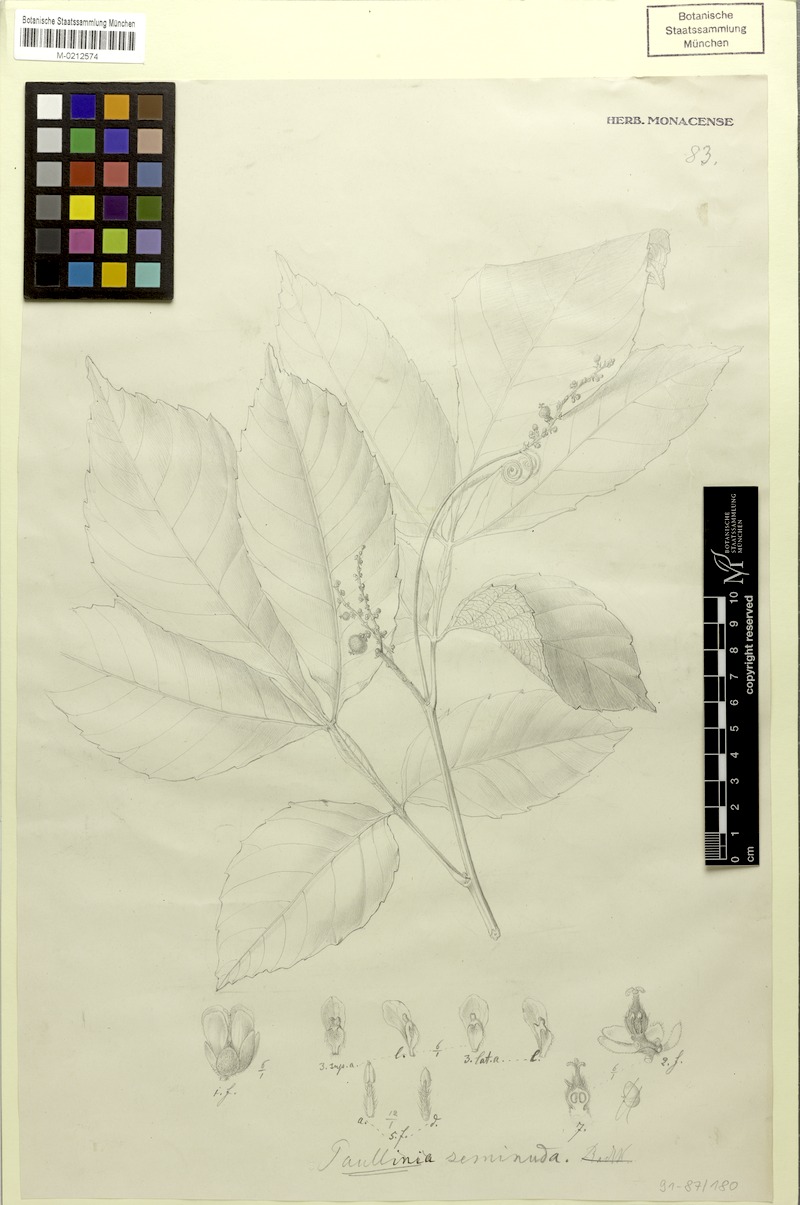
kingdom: Plantae
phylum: Tracheophyta
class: Magnoliopsida
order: Sapindales
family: Sapindaceae
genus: Paullinia
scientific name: Paullinia seminuda
